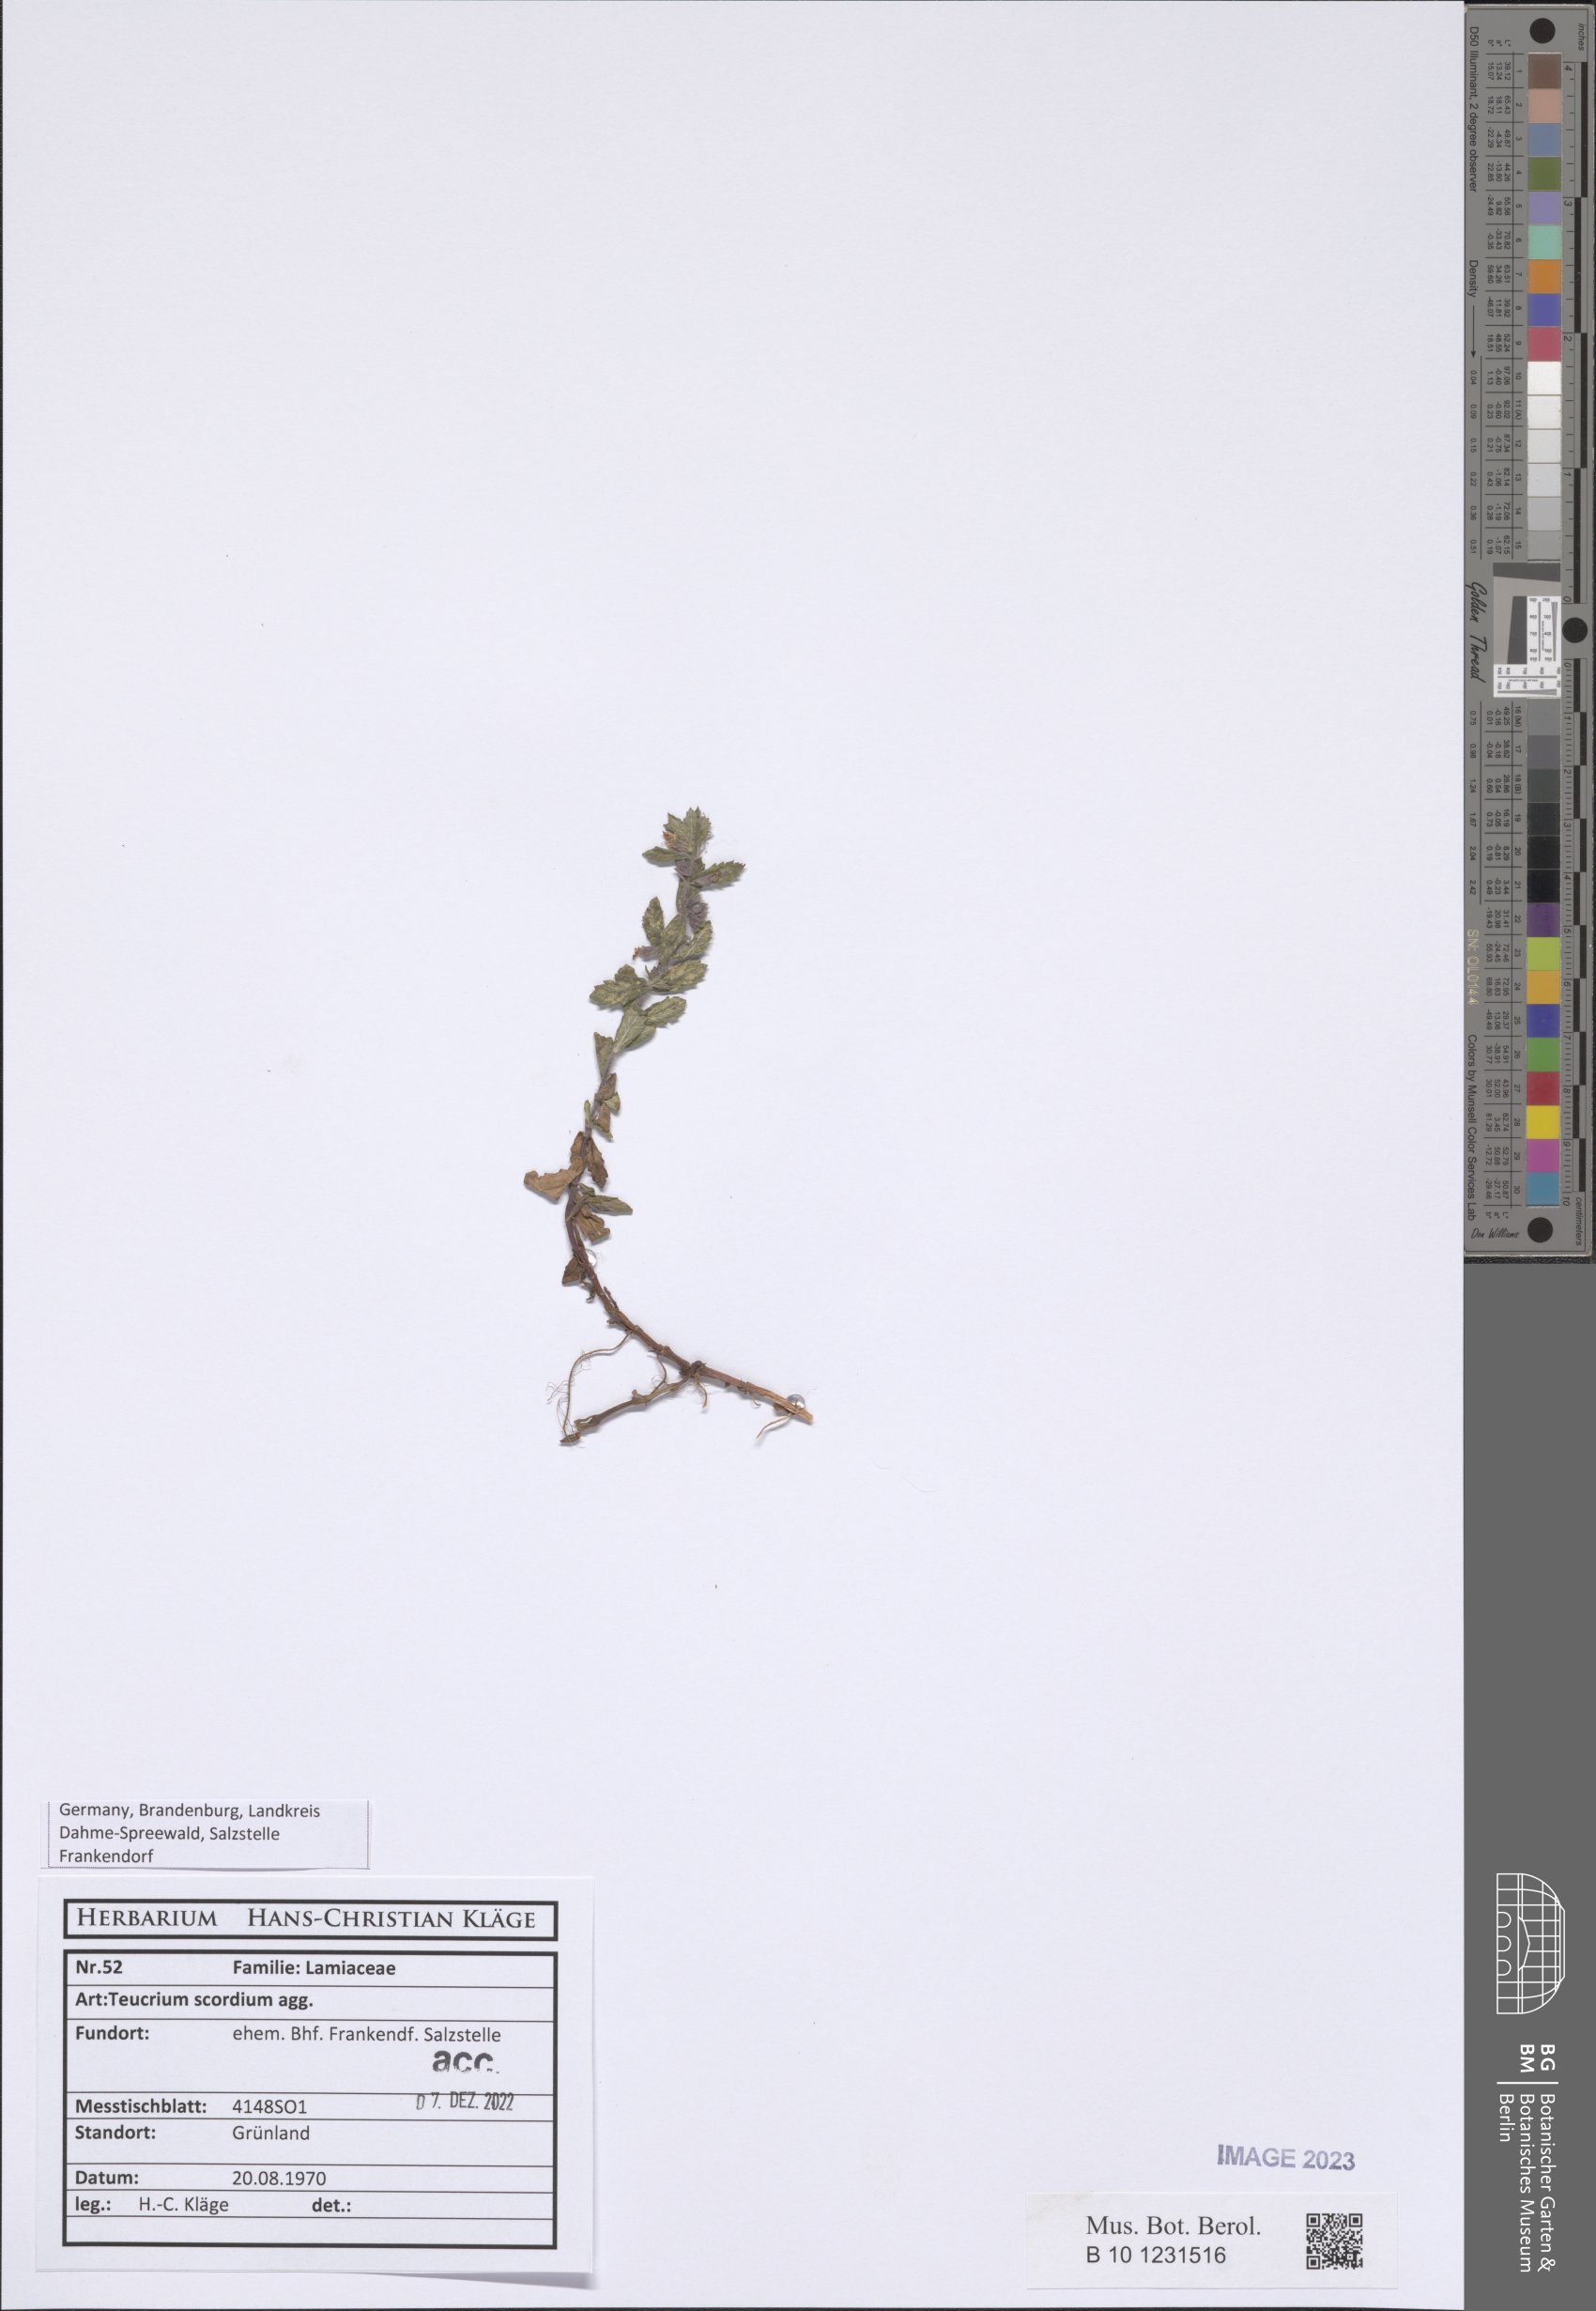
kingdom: Plantae
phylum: Bryophyta
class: Bryopsida
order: Hypnales
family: Amblystegiaceae
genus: Drepanocladus
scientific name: Drepanocladus aduncus
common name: Knieff's hook moss
